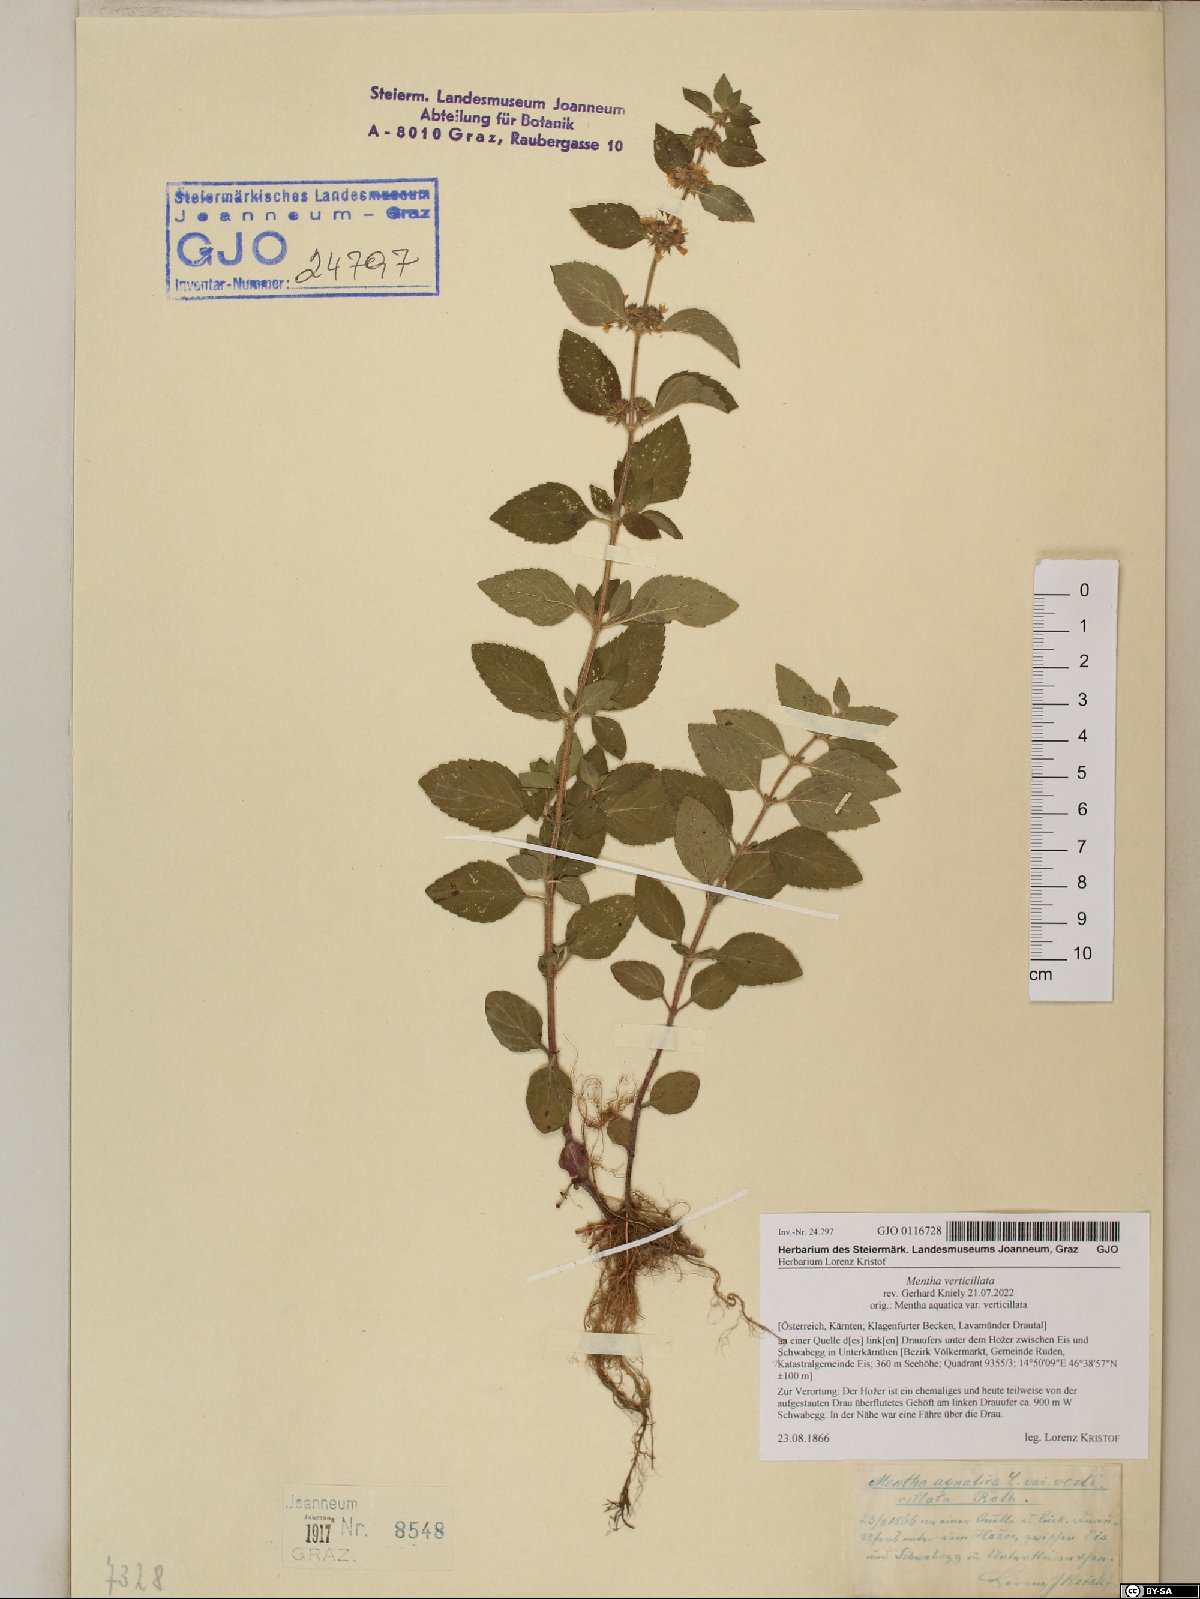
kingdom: Plantae
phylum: Tracheophyta
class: Magnoliopsida
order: Lamiales
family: Lamiaceae
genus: Mentha
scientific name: Mentha verticillata
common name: Mint
